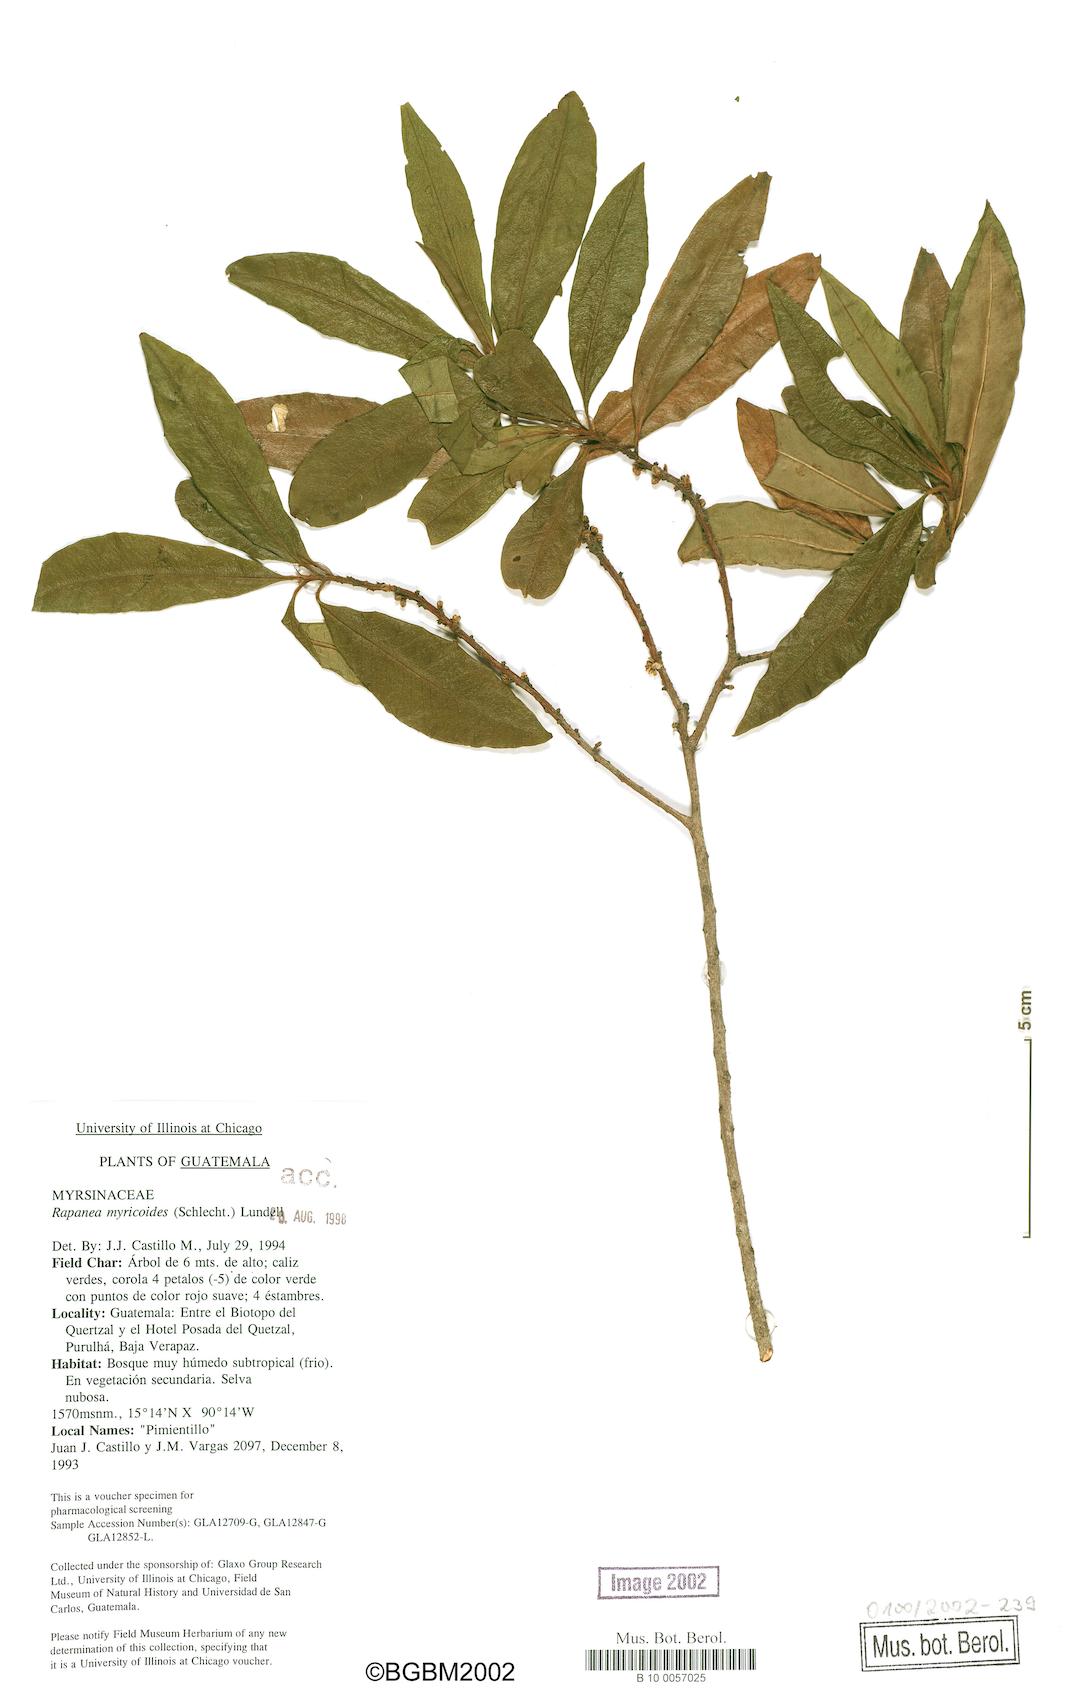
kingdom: Plantae
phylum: Tracheophyta
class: Magnoliopsida
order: Ericales
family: Primulaceae
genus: Myrsine
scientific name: Myrsine coriacea
